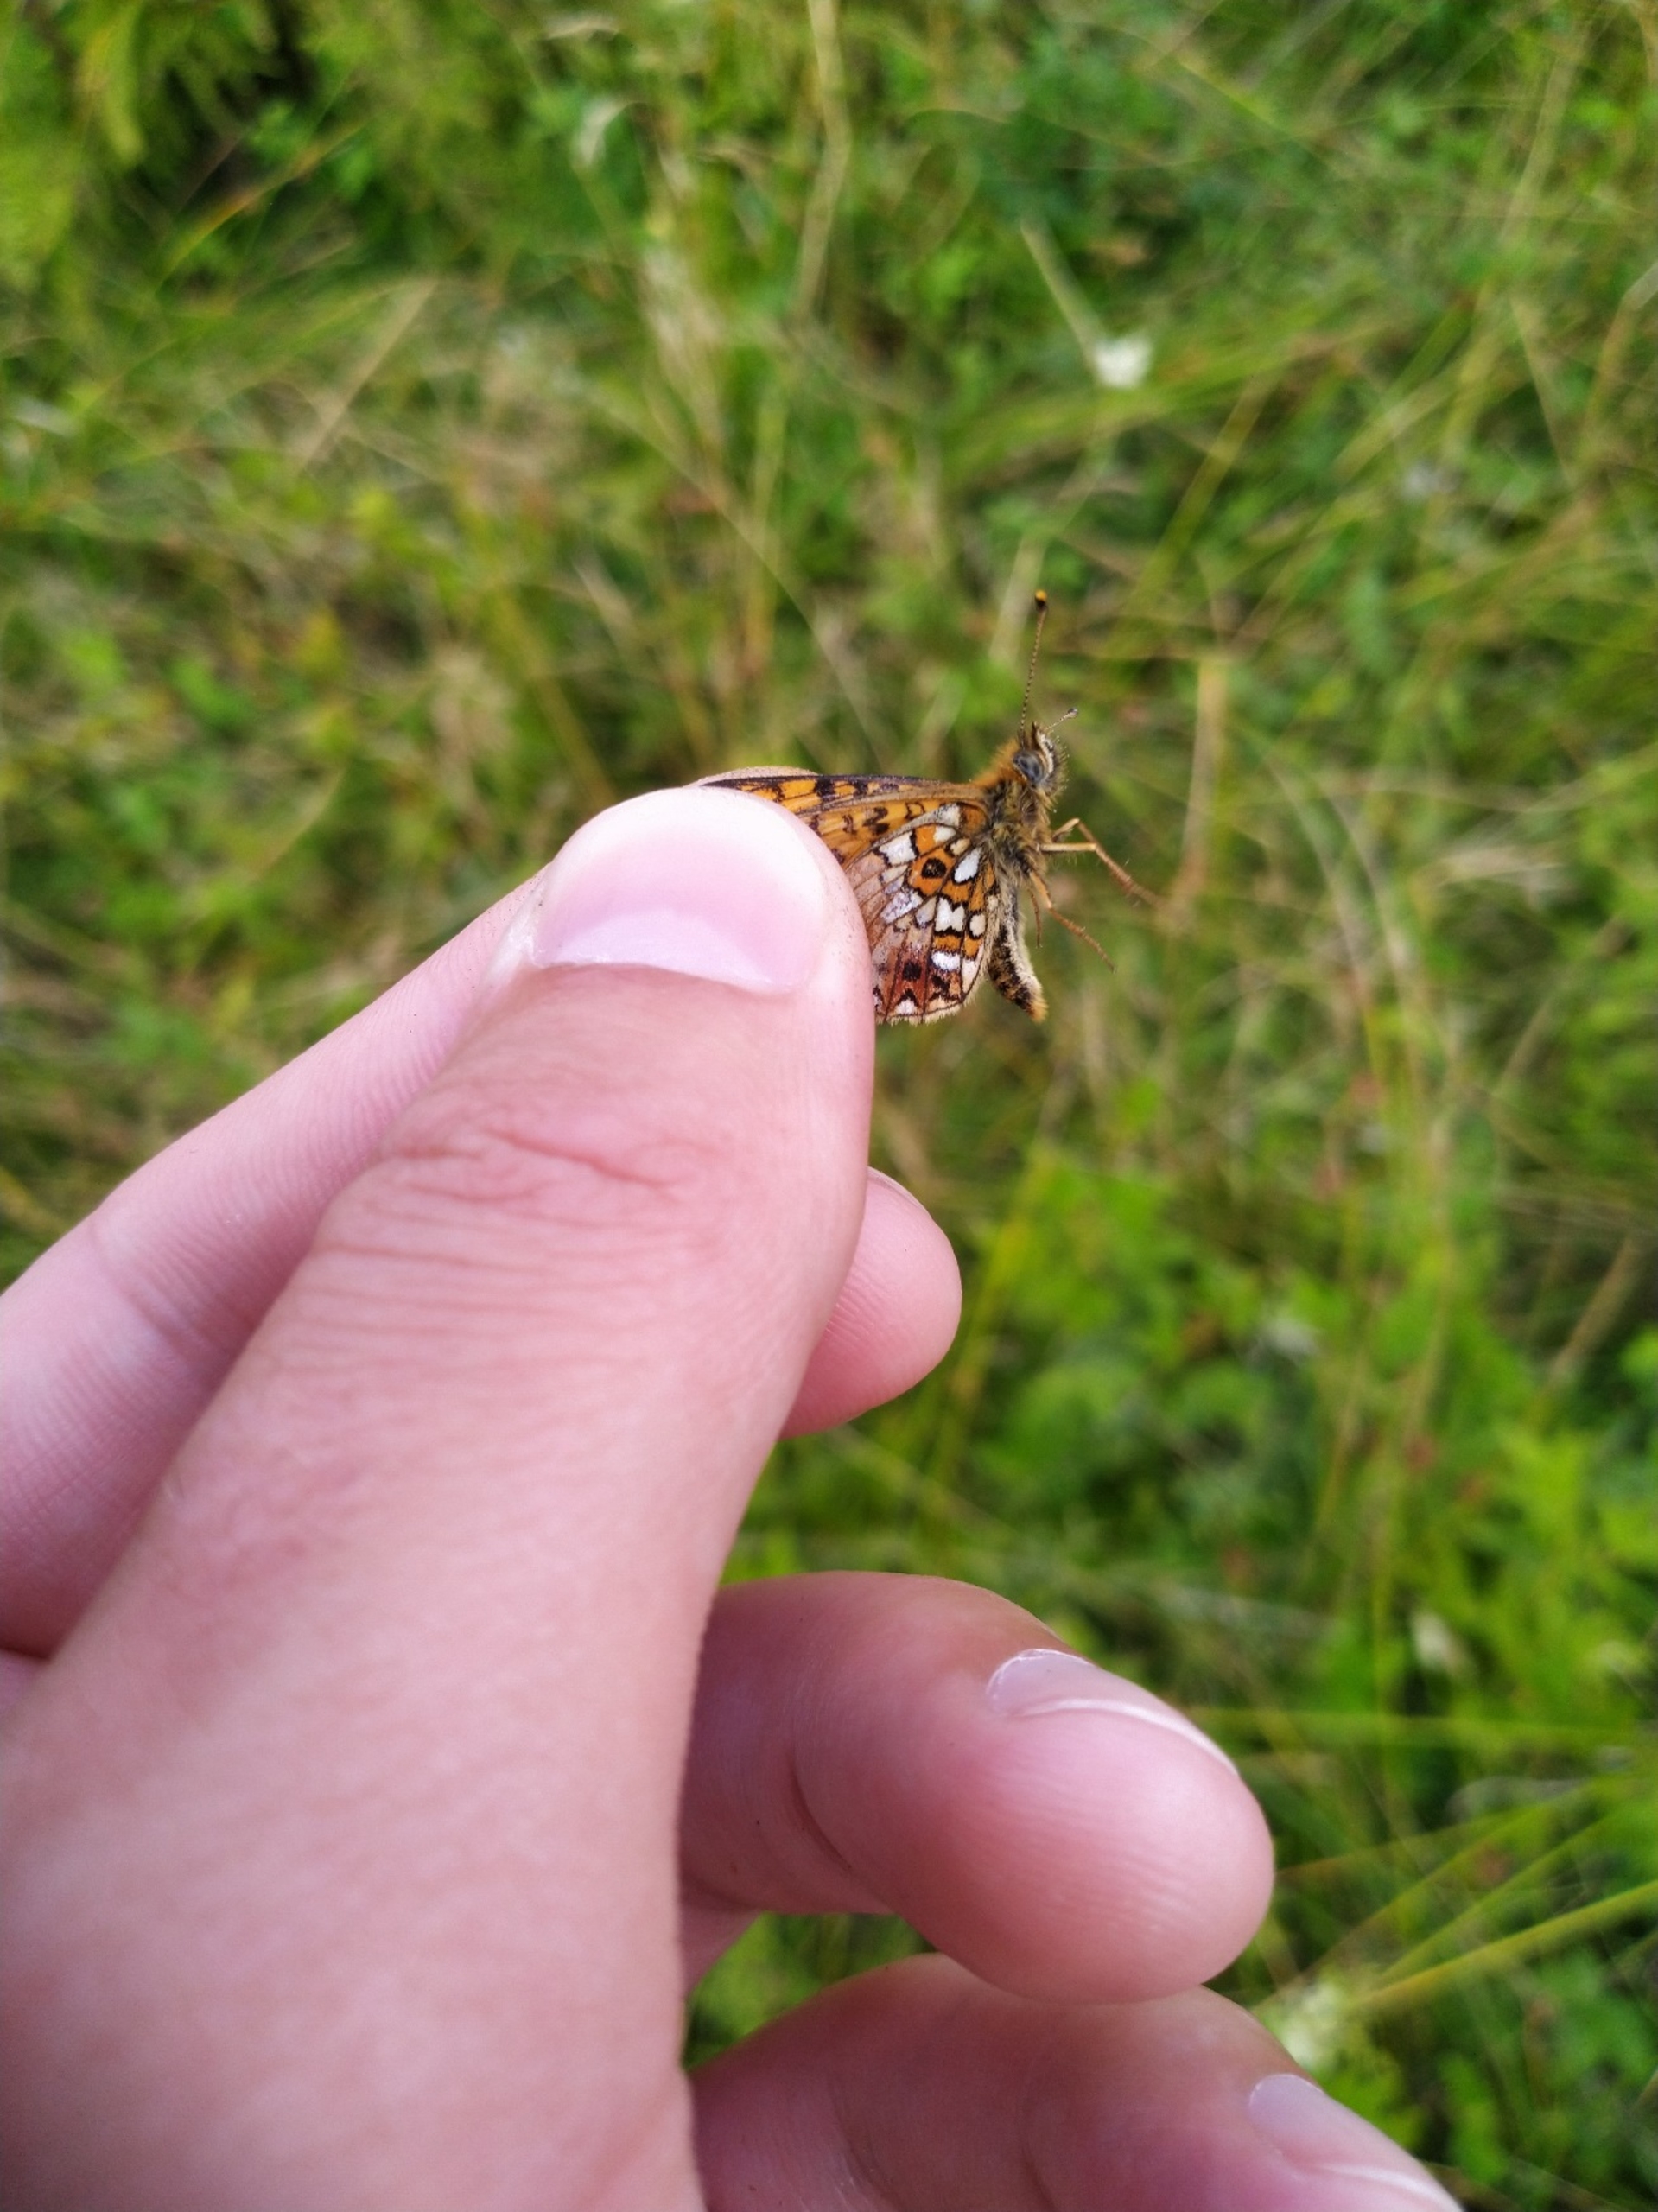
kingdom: Animalia
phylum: Arthropoda
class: Insecta
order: Lepidoptera
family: Nymphalidae
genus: Boloria
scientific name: Boloria selene
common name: Brunlig perlemorsommerfugl
